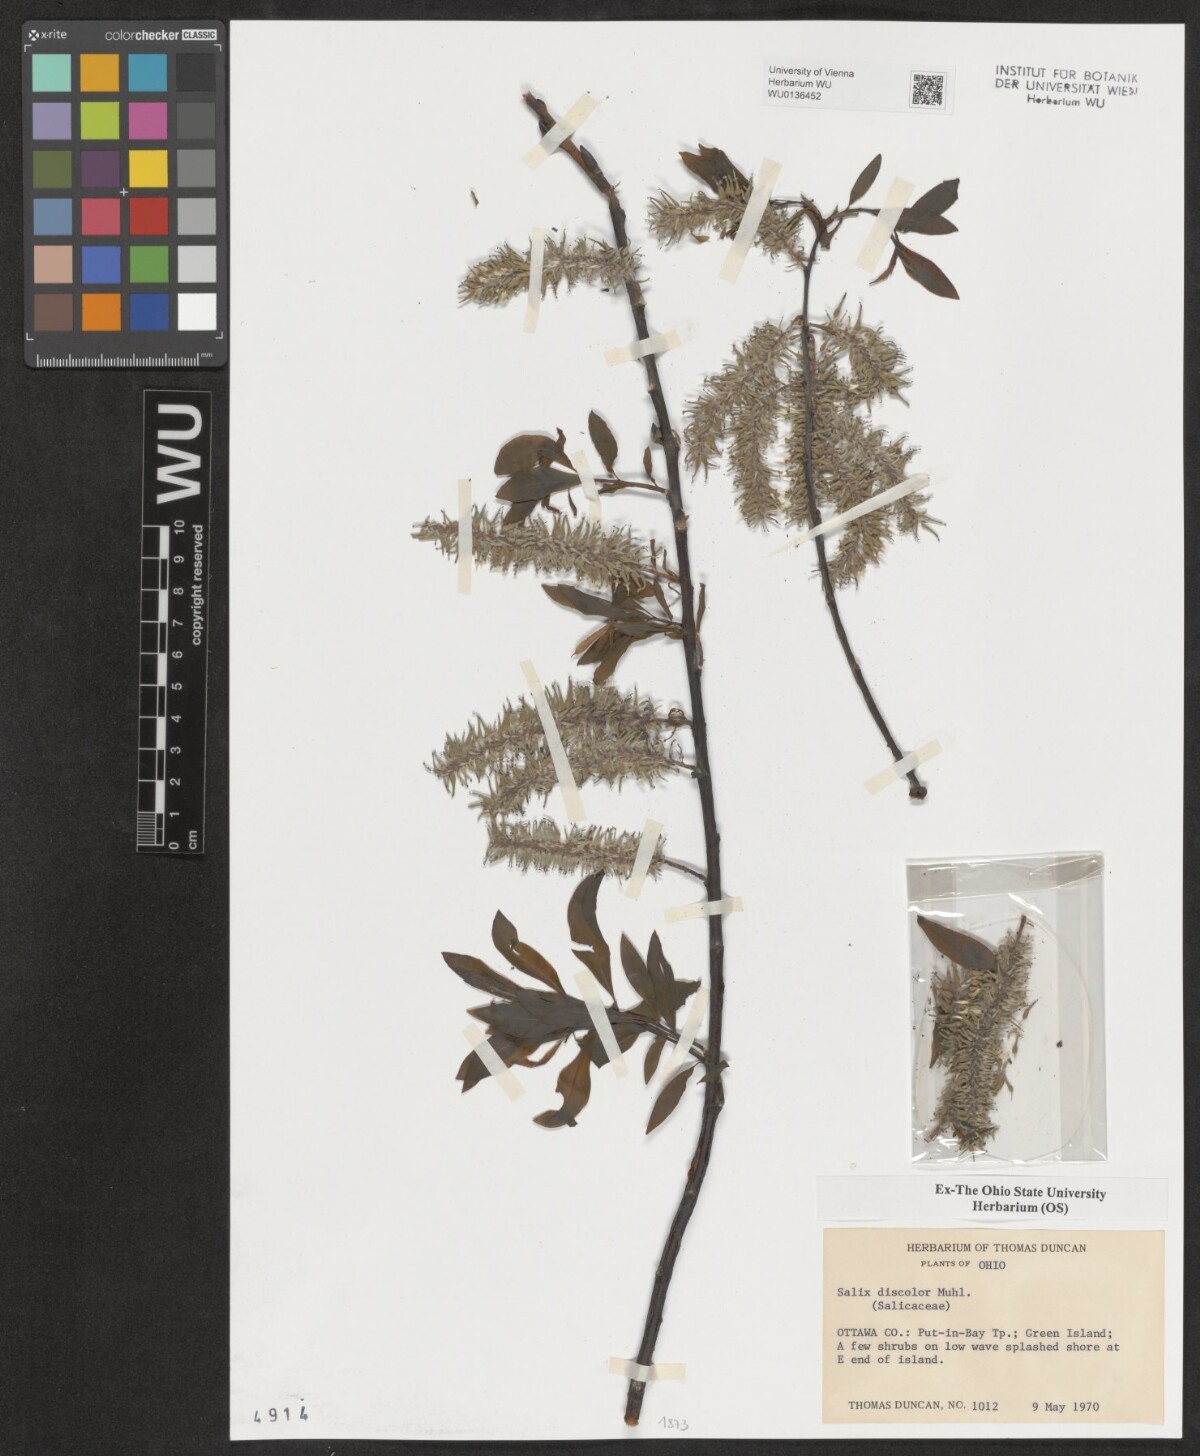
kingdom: Plantae
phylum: Tracheophyta
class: Magnoliopsida
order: Malpighiales
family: Salicaceae
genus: Salix
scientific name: Salix discolor
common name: Glaucous willow
